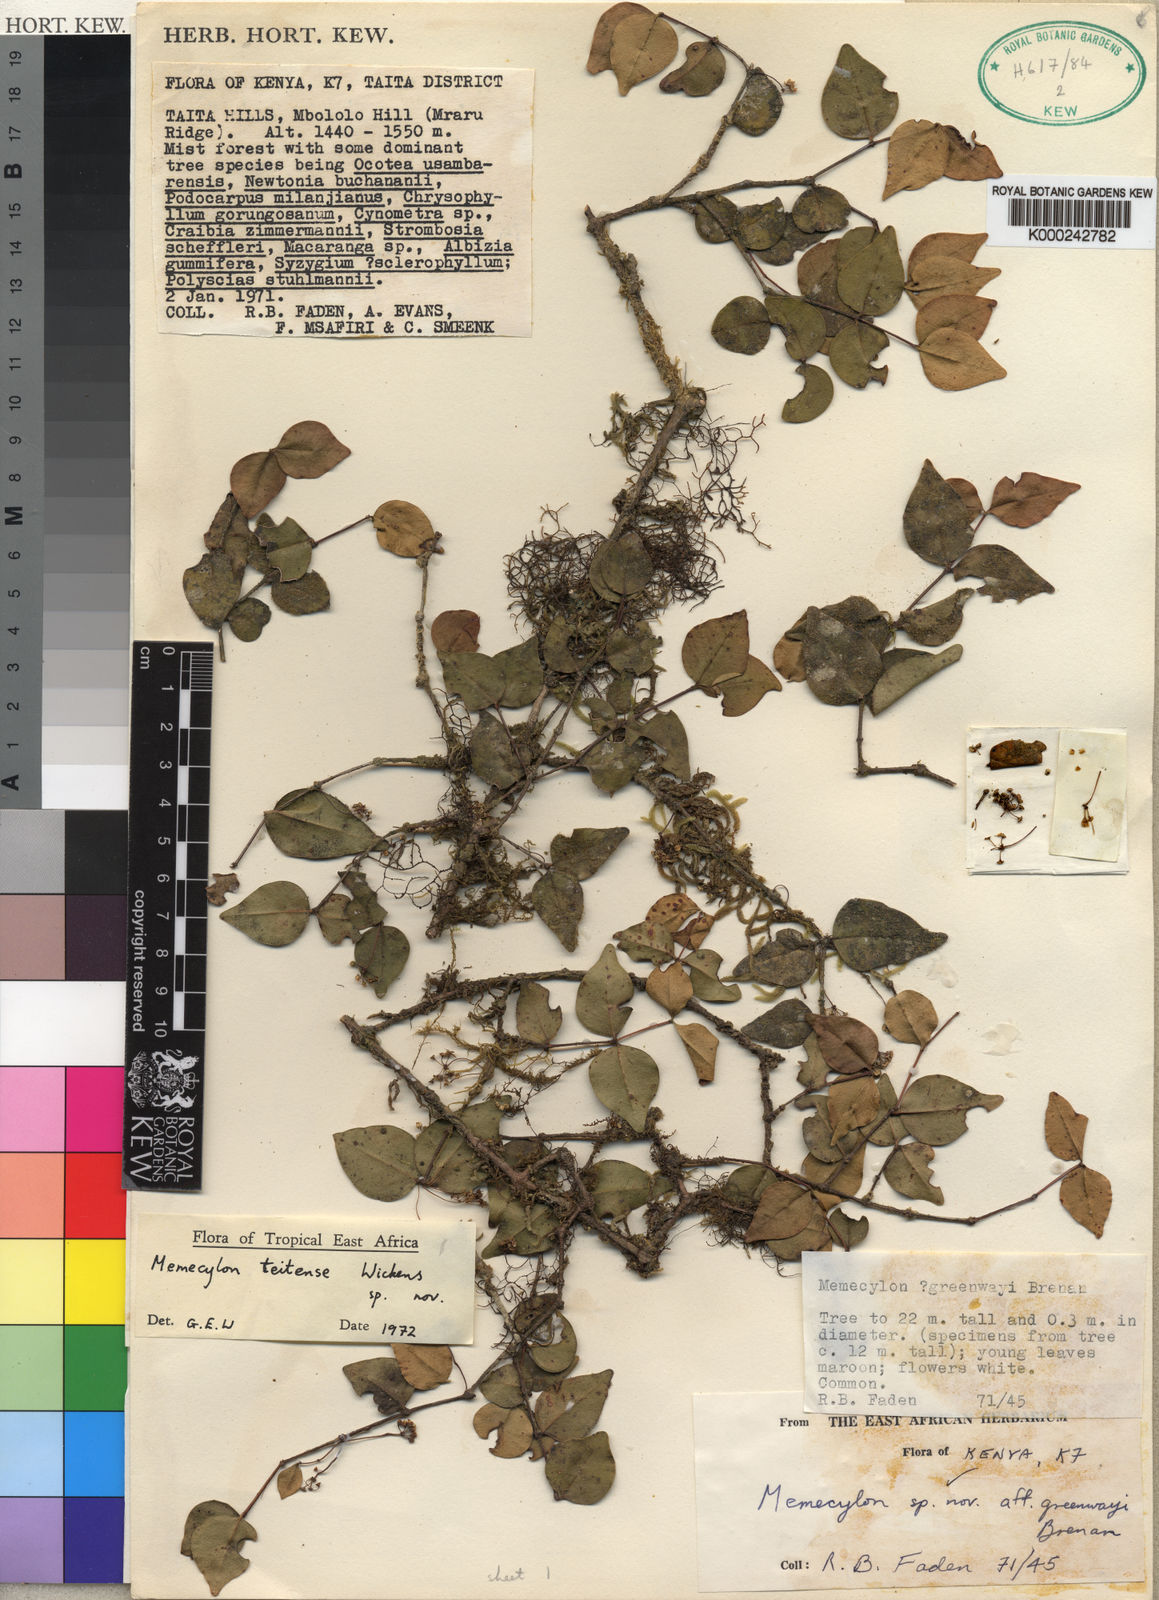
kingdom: Plantae
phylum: Tracheophyta
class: Magnoliopsida
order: Myrtales
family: Melastomataceae
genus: Memecylon
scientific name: Memecylon teitense
